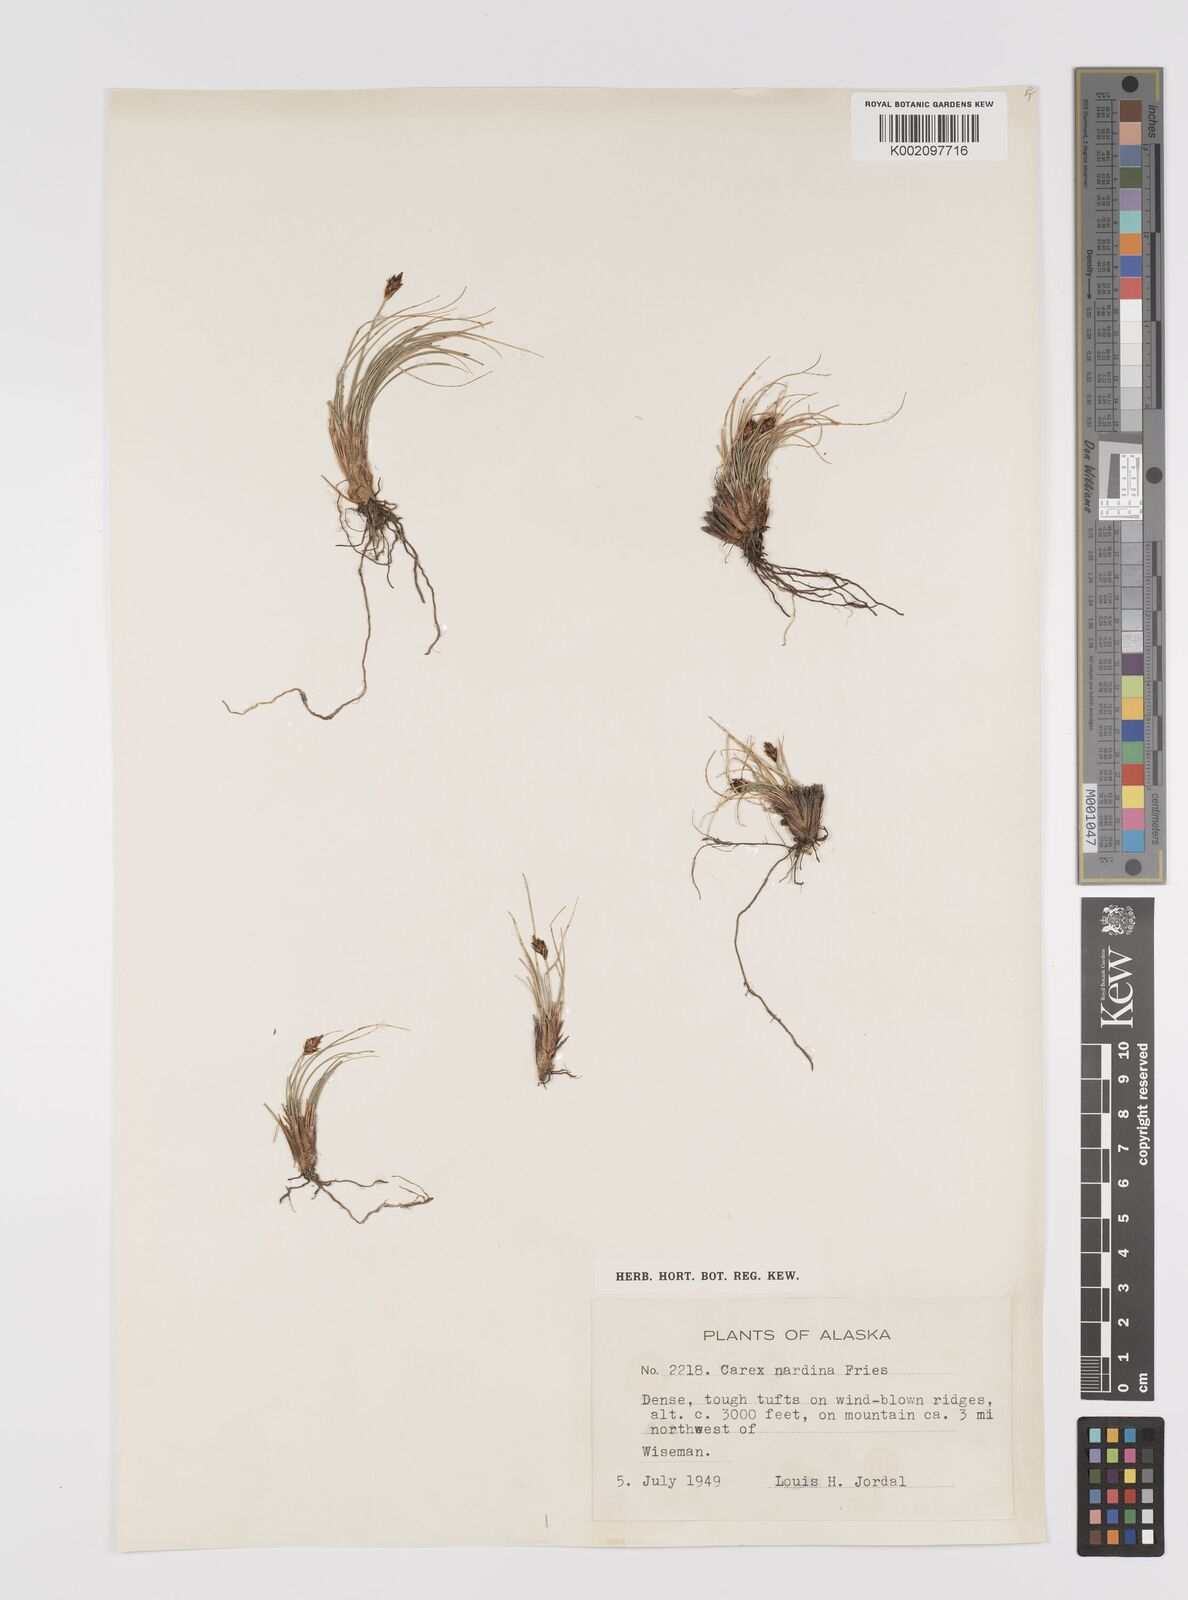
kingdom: Plantae
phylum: Tracheophyta
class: Liliopsida
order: Poales
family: Cyperaceae
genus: Carex
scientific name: Carex nardina
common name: Nard sedge
